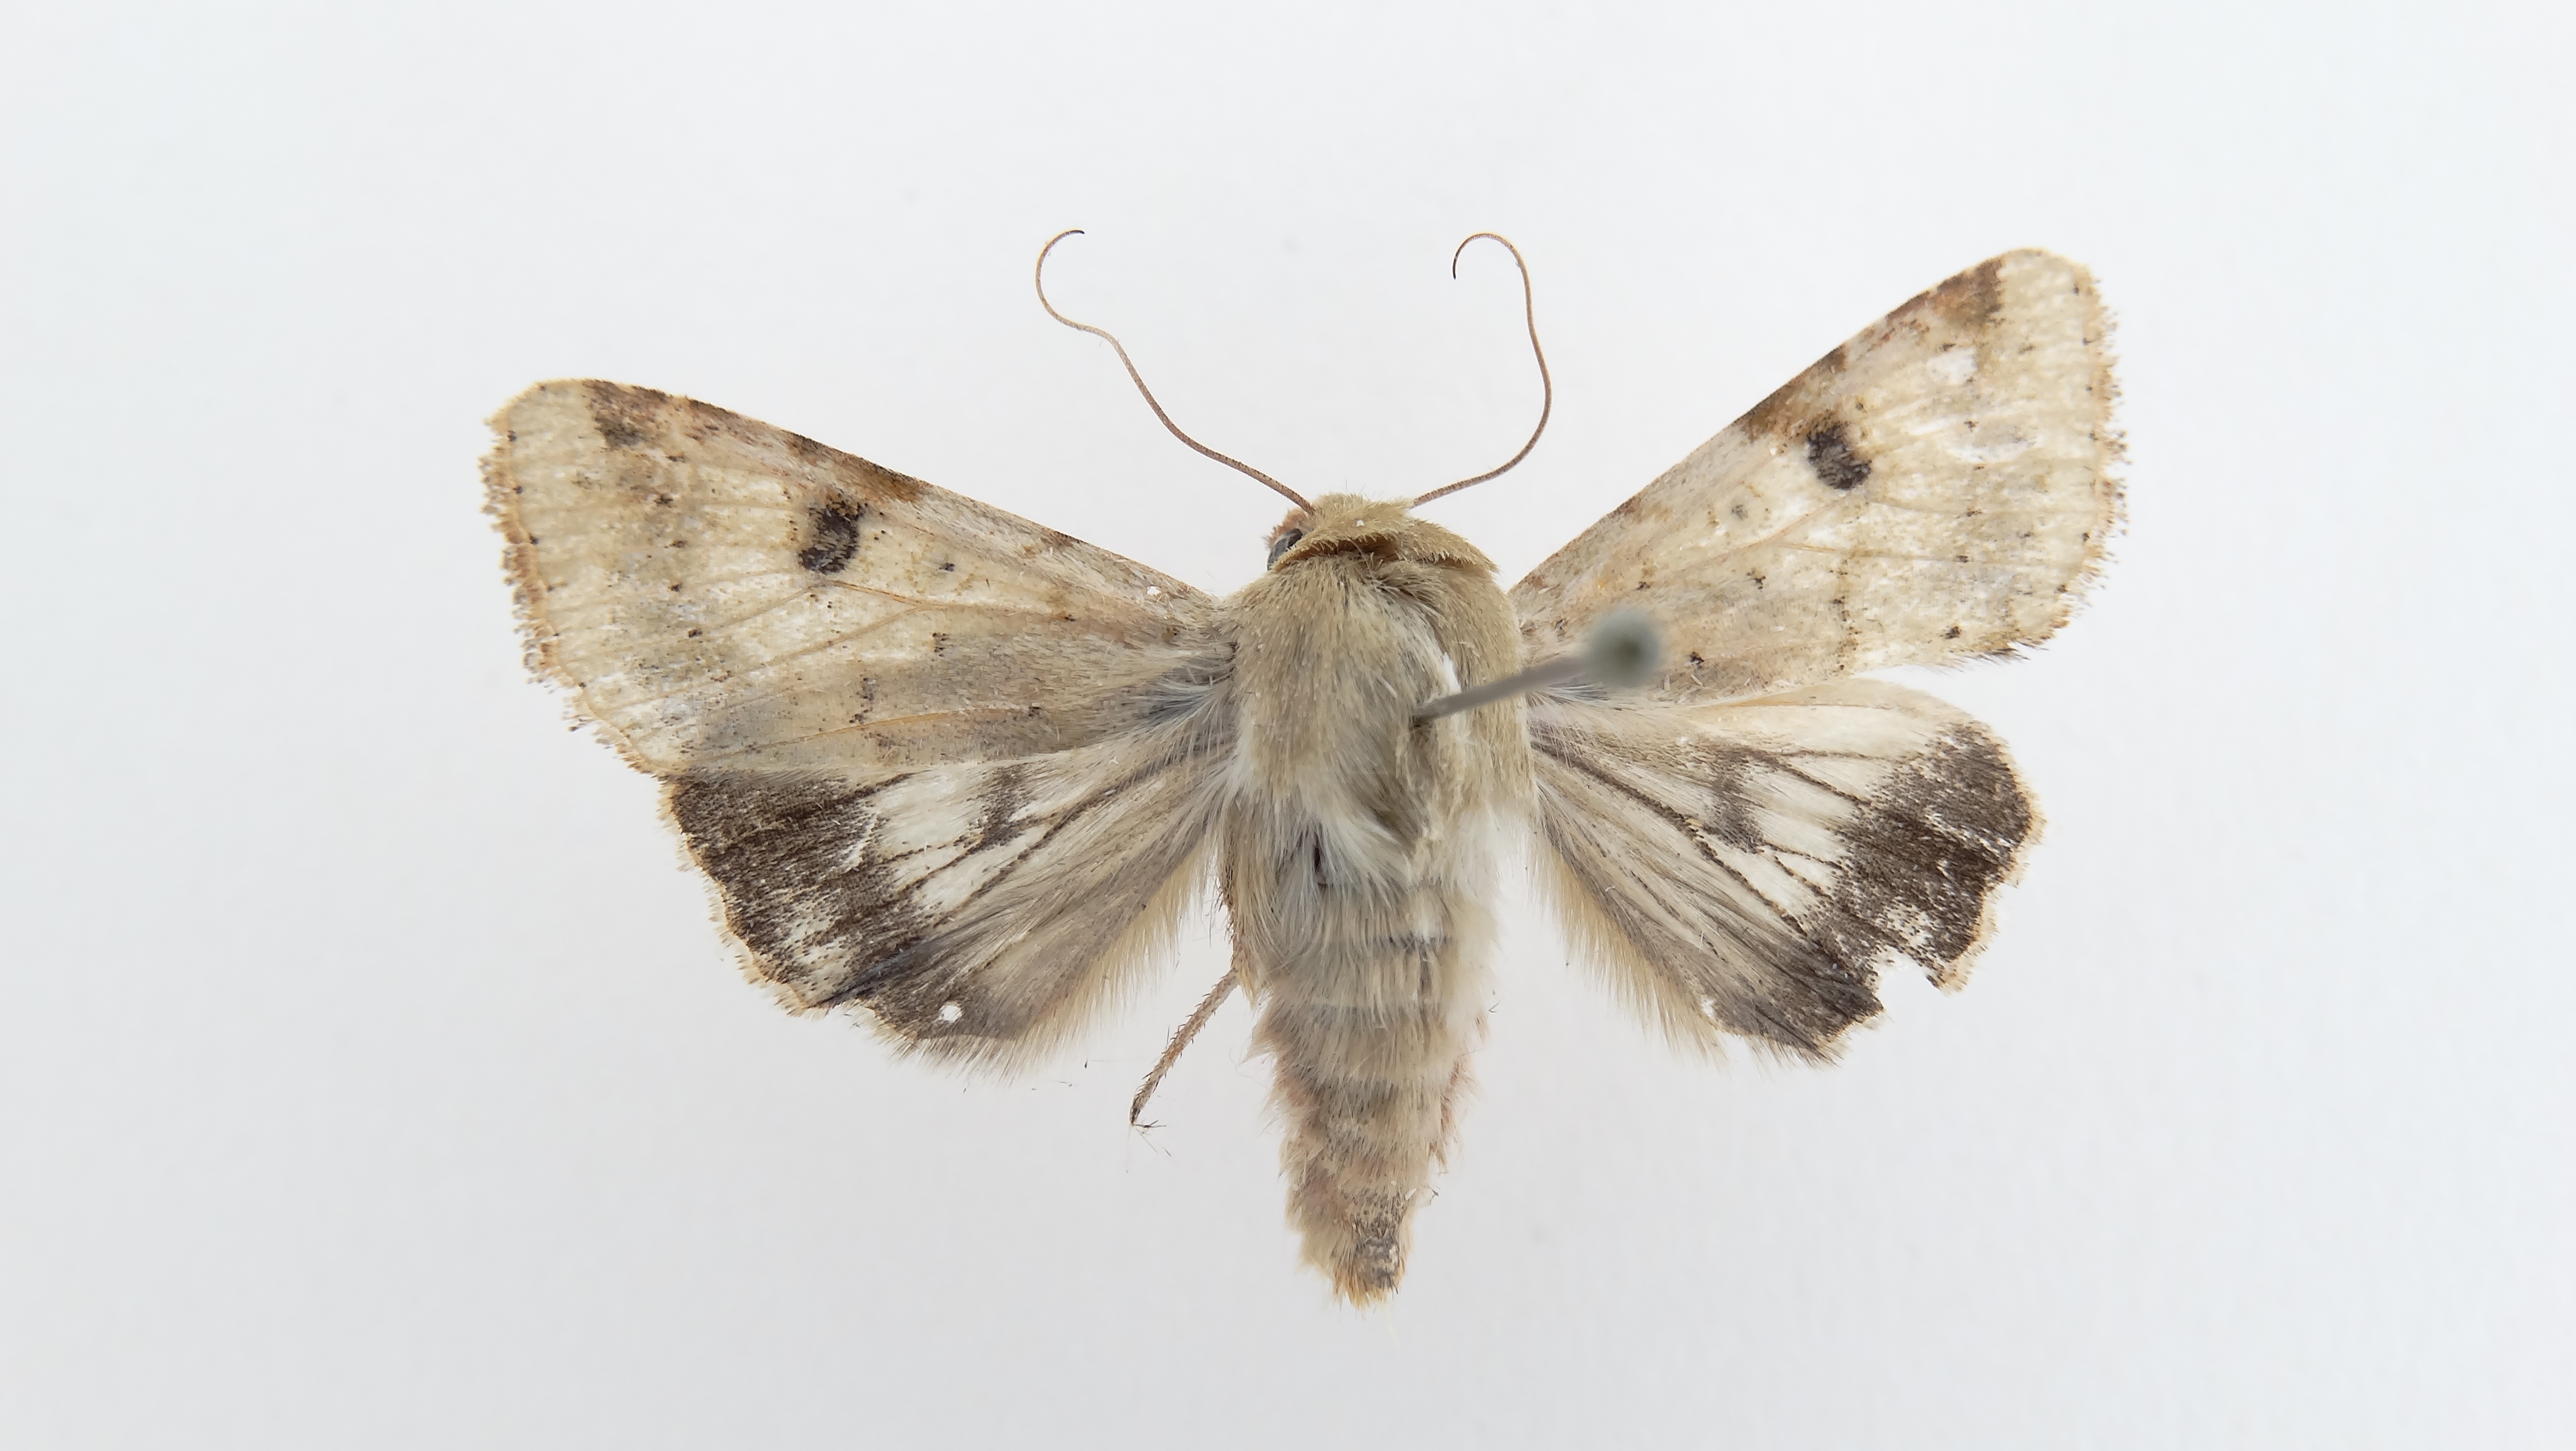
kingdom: Animalia
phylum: Arthropoda
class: Insecta
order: Lepidoptera
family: Noctuidae
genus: Helicoverpa
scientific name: Helicoverpa zea
